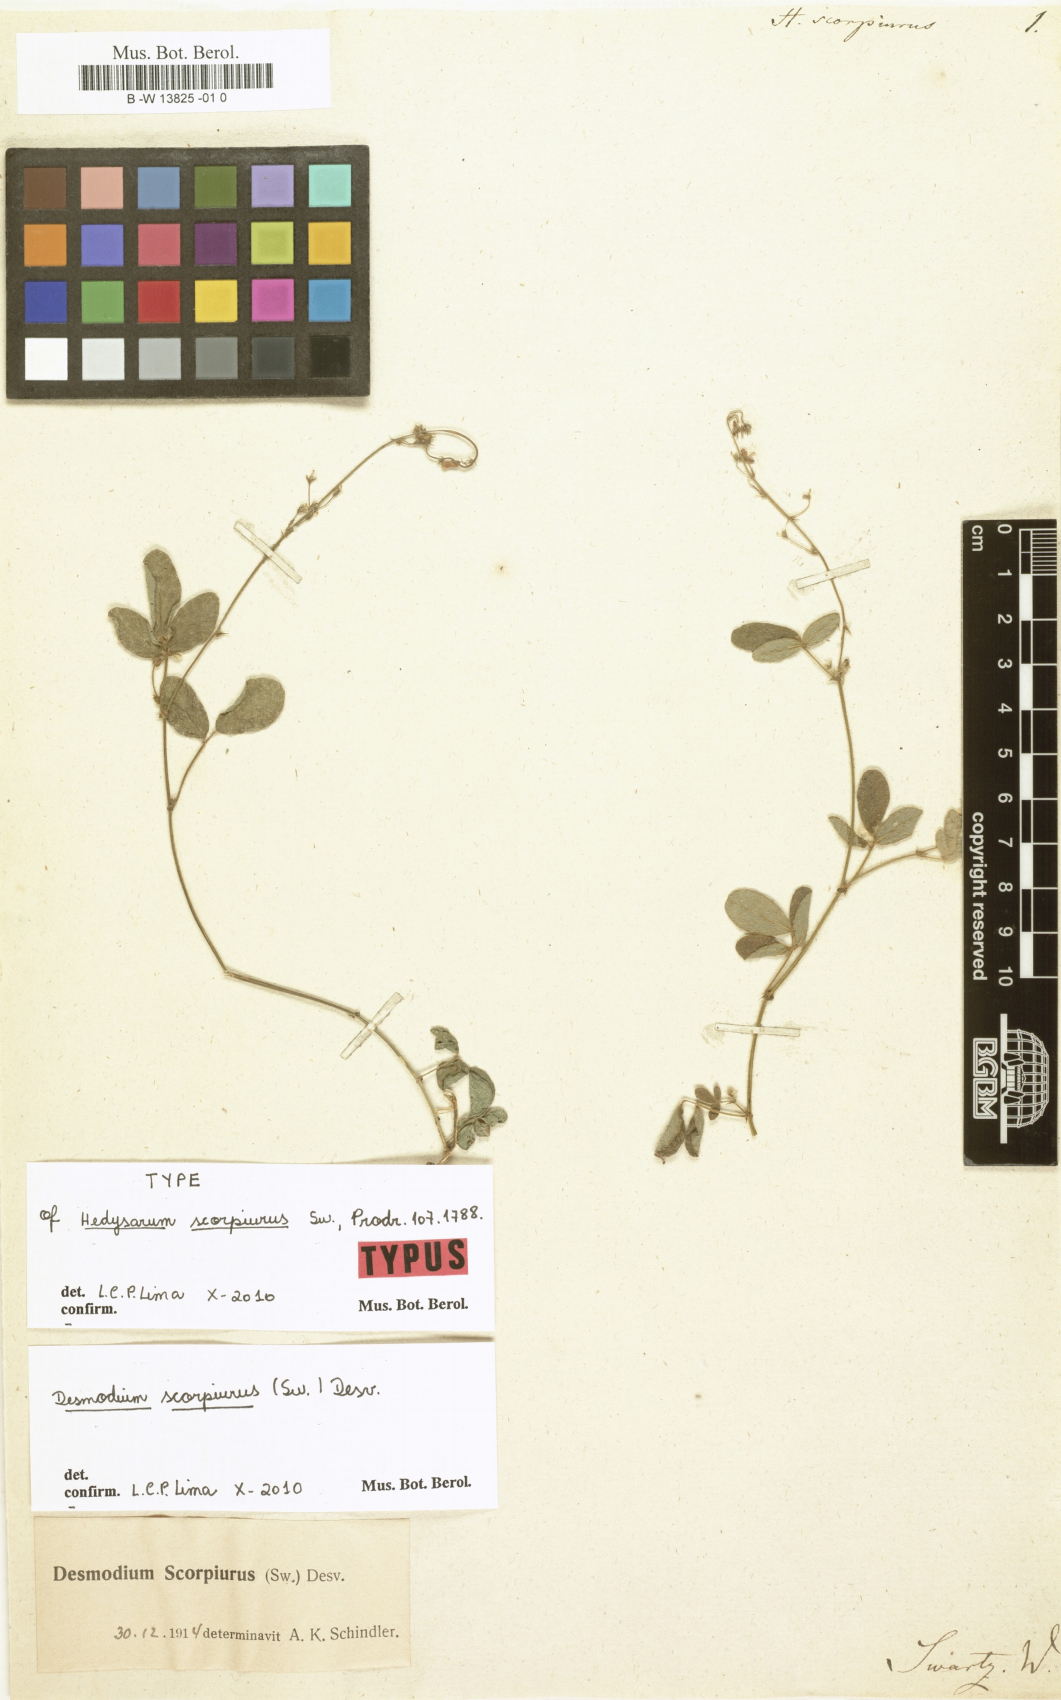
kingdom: Plantae
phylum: Tracheophyta
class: Magnoliopsida
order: Fabales
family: Fabaceae
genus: Desmodium
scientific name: Desmodium scorpiurus
